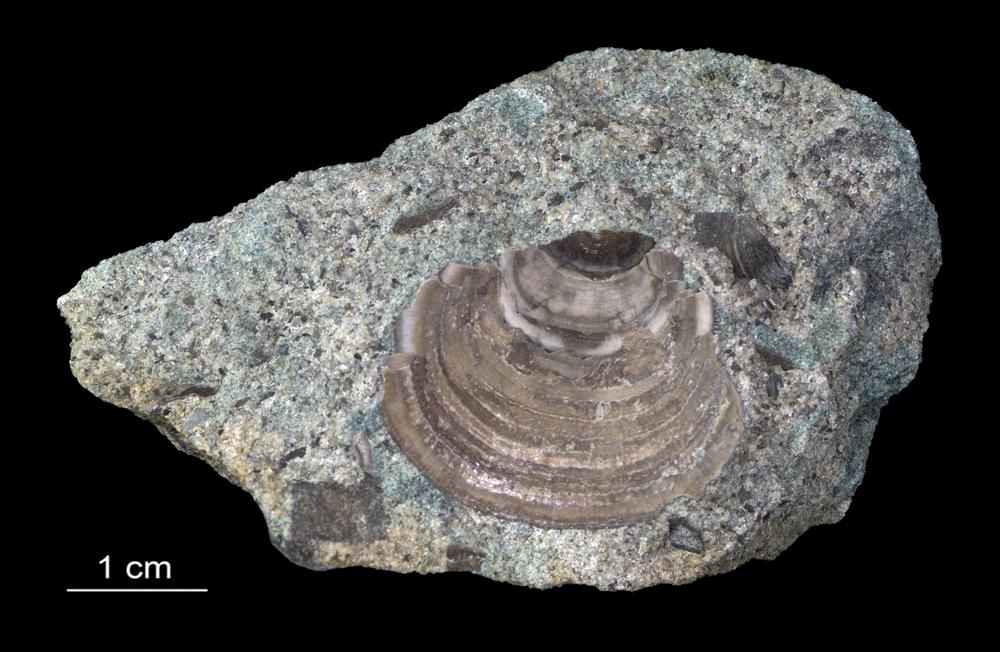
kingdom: Animalia
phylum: Brachiopoda
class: Lingulata
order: Lingulida
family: Zhanatellidae
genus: Thysanotos
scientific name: Thysanotos
